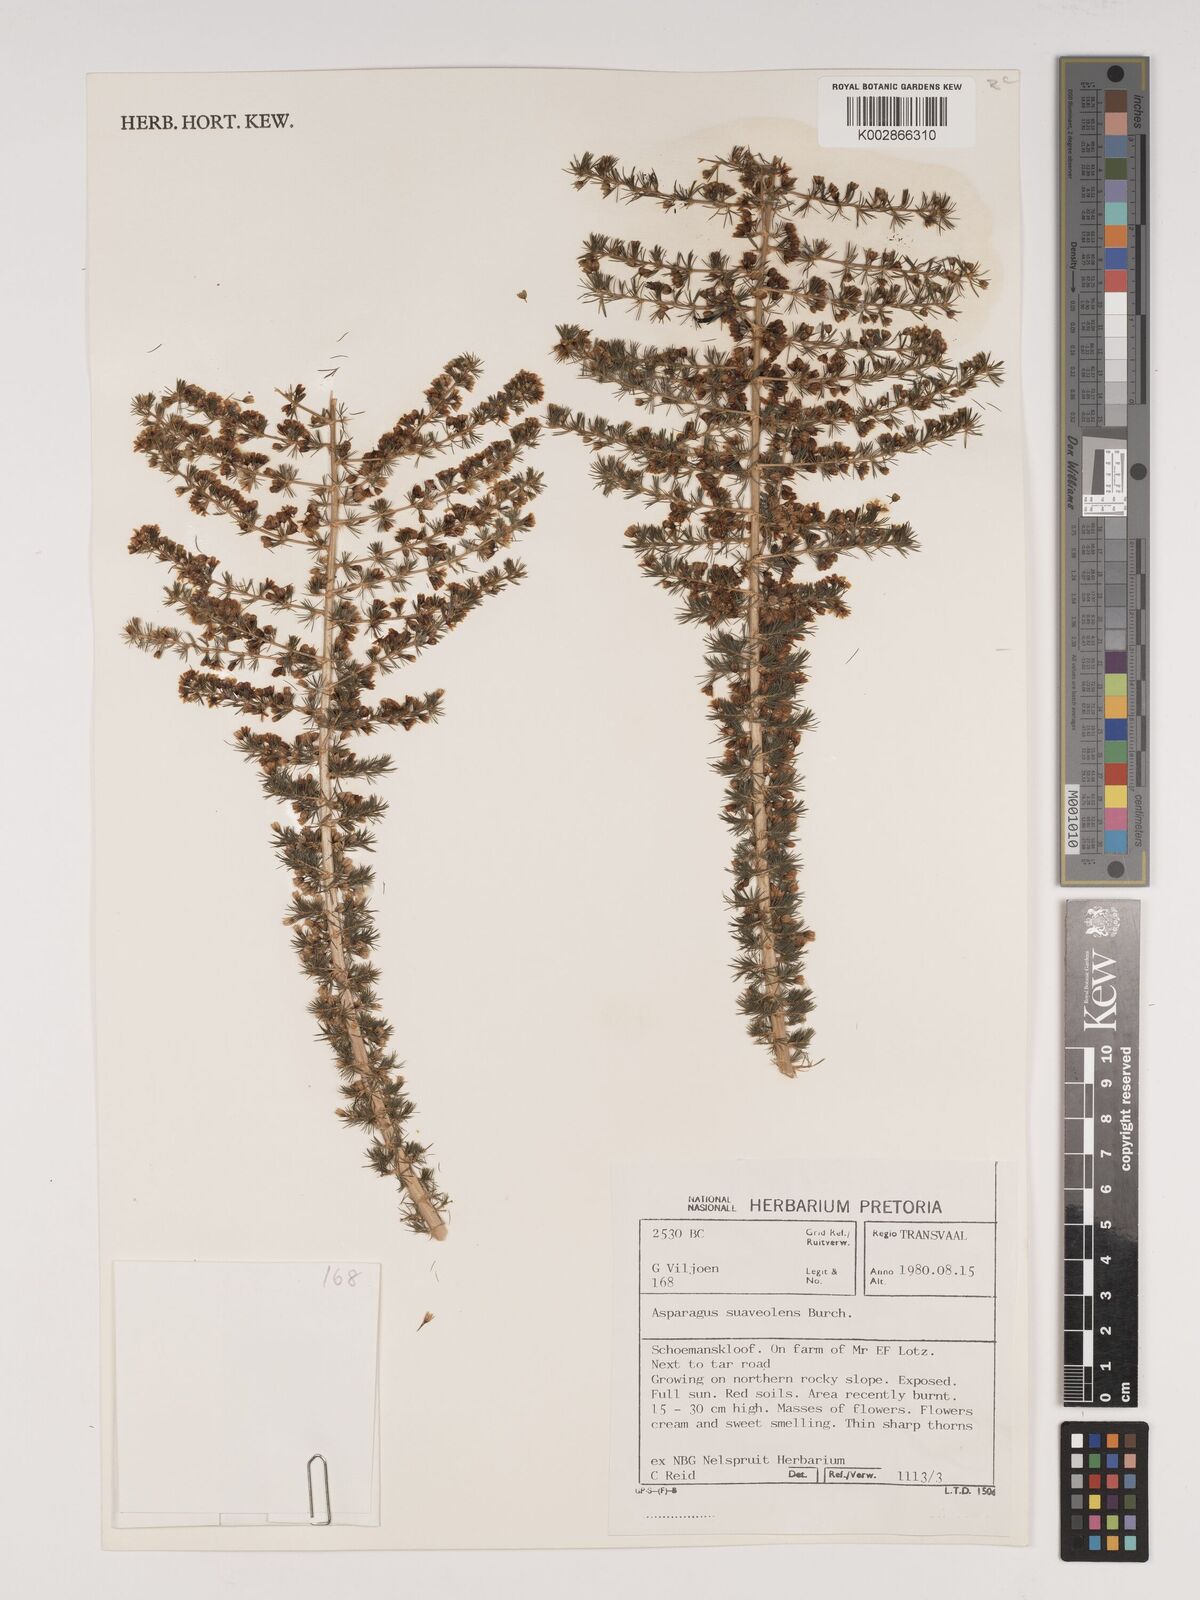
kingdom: Plantae
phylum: Tracheophyta
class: Liliopsida
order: Asparagales
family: Asparagaceae
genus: Asparagus
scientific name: Asparagus suaveolens
